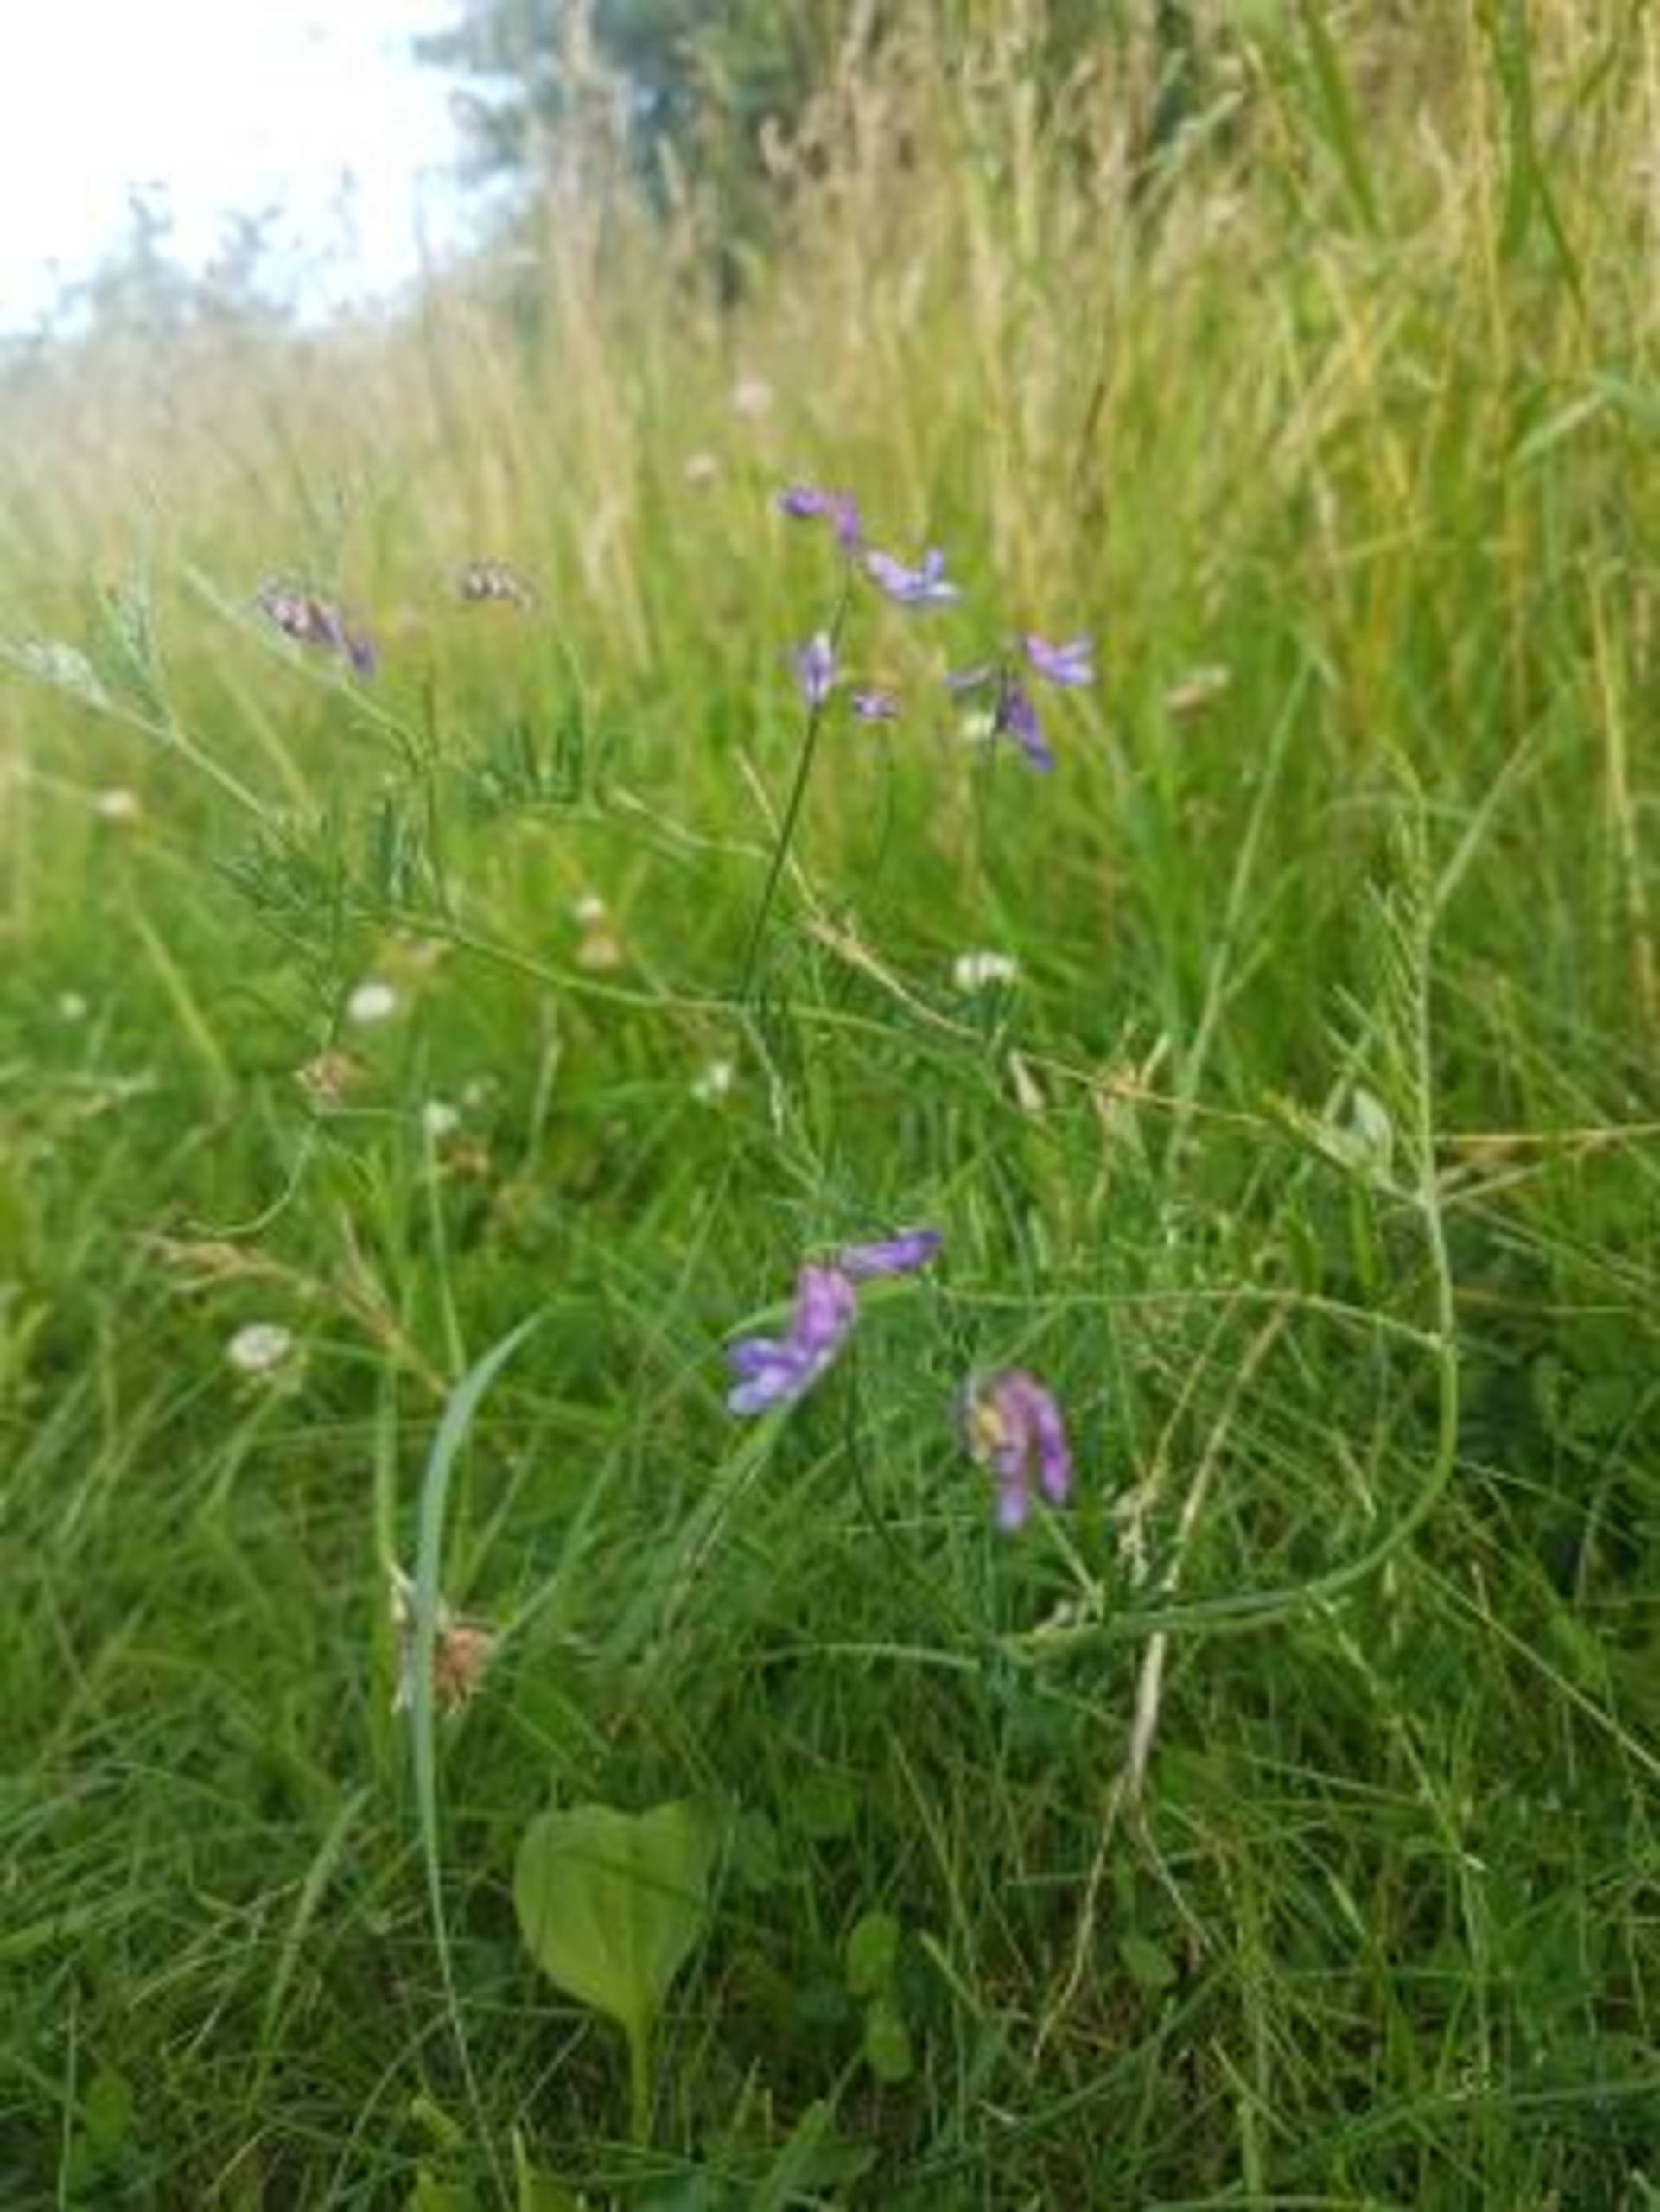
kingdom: Plantae
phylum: Tracheophyta
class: Magnoliopsida
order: Fabales
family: Fabaceae
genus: Vicia
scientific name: Vicia cracca
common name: Muse-vikke
